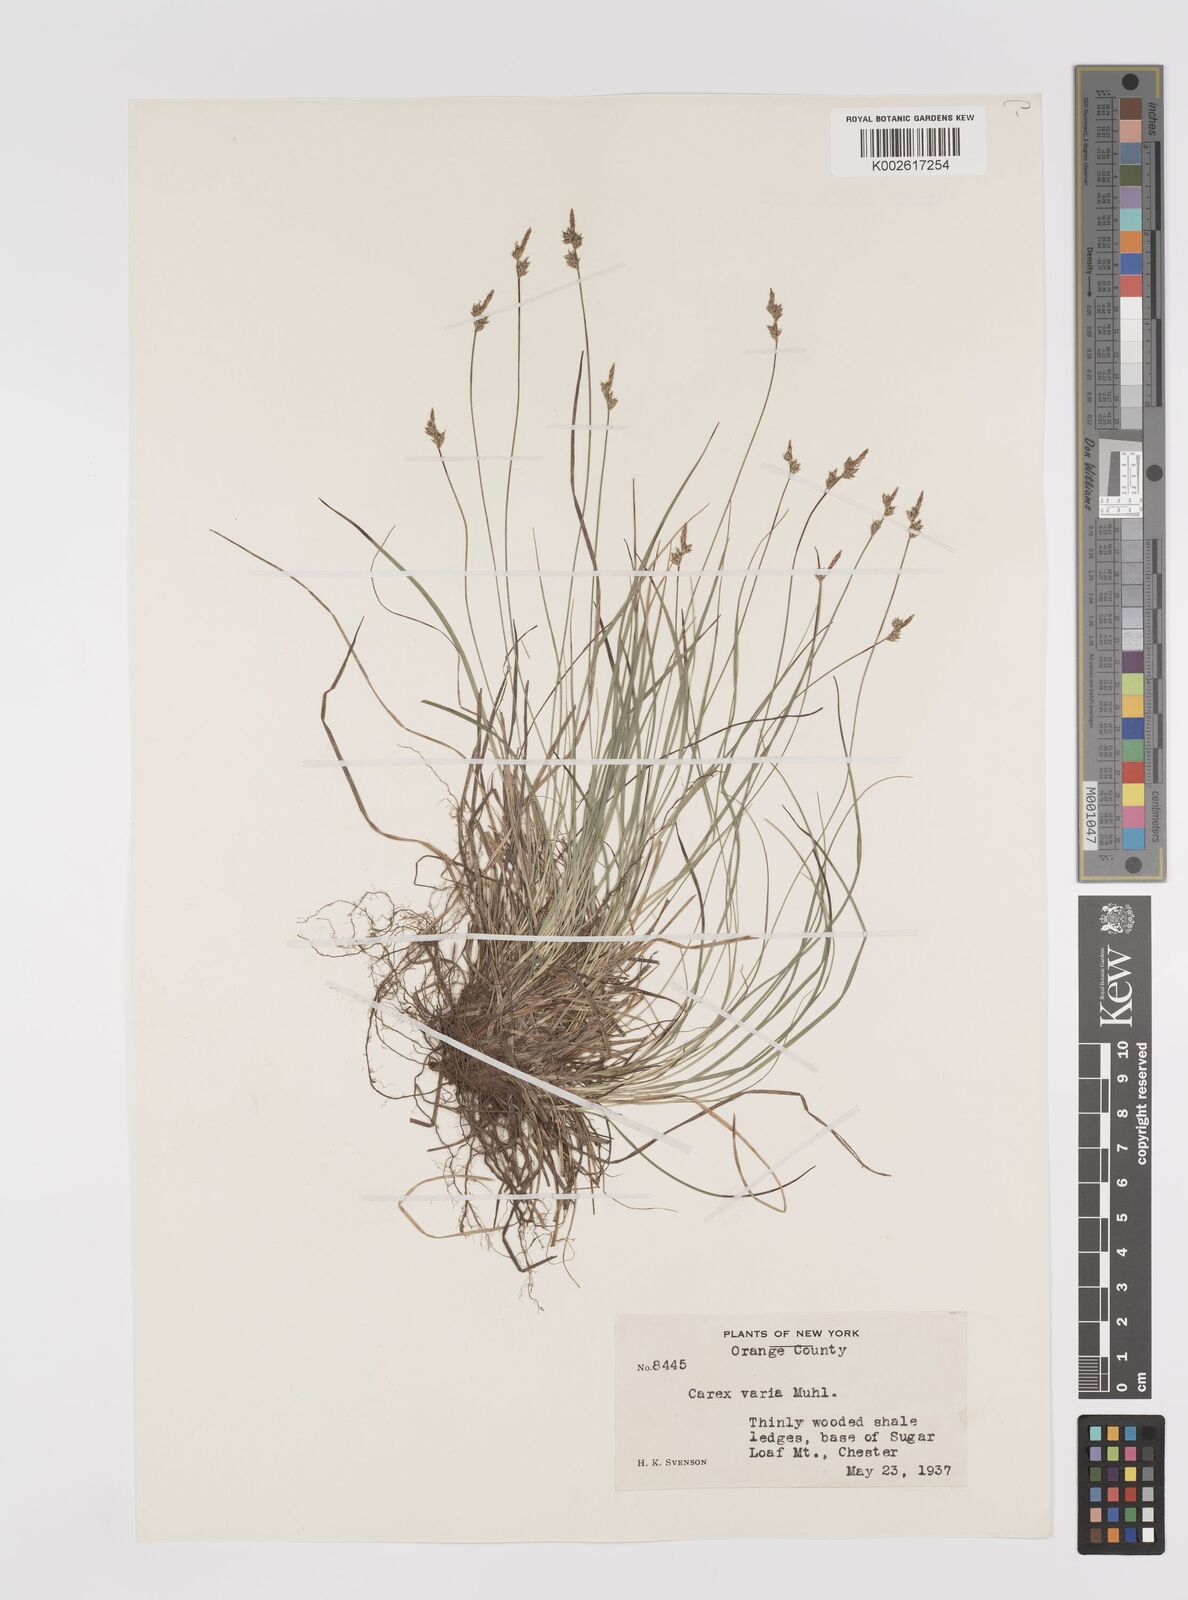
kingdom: Plantae
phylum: Tracheophyta
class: Liliopsida
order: Poales
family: Cyperaceae
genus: Carex
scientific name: Carex albicans
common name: Bellow-beaked sedge
